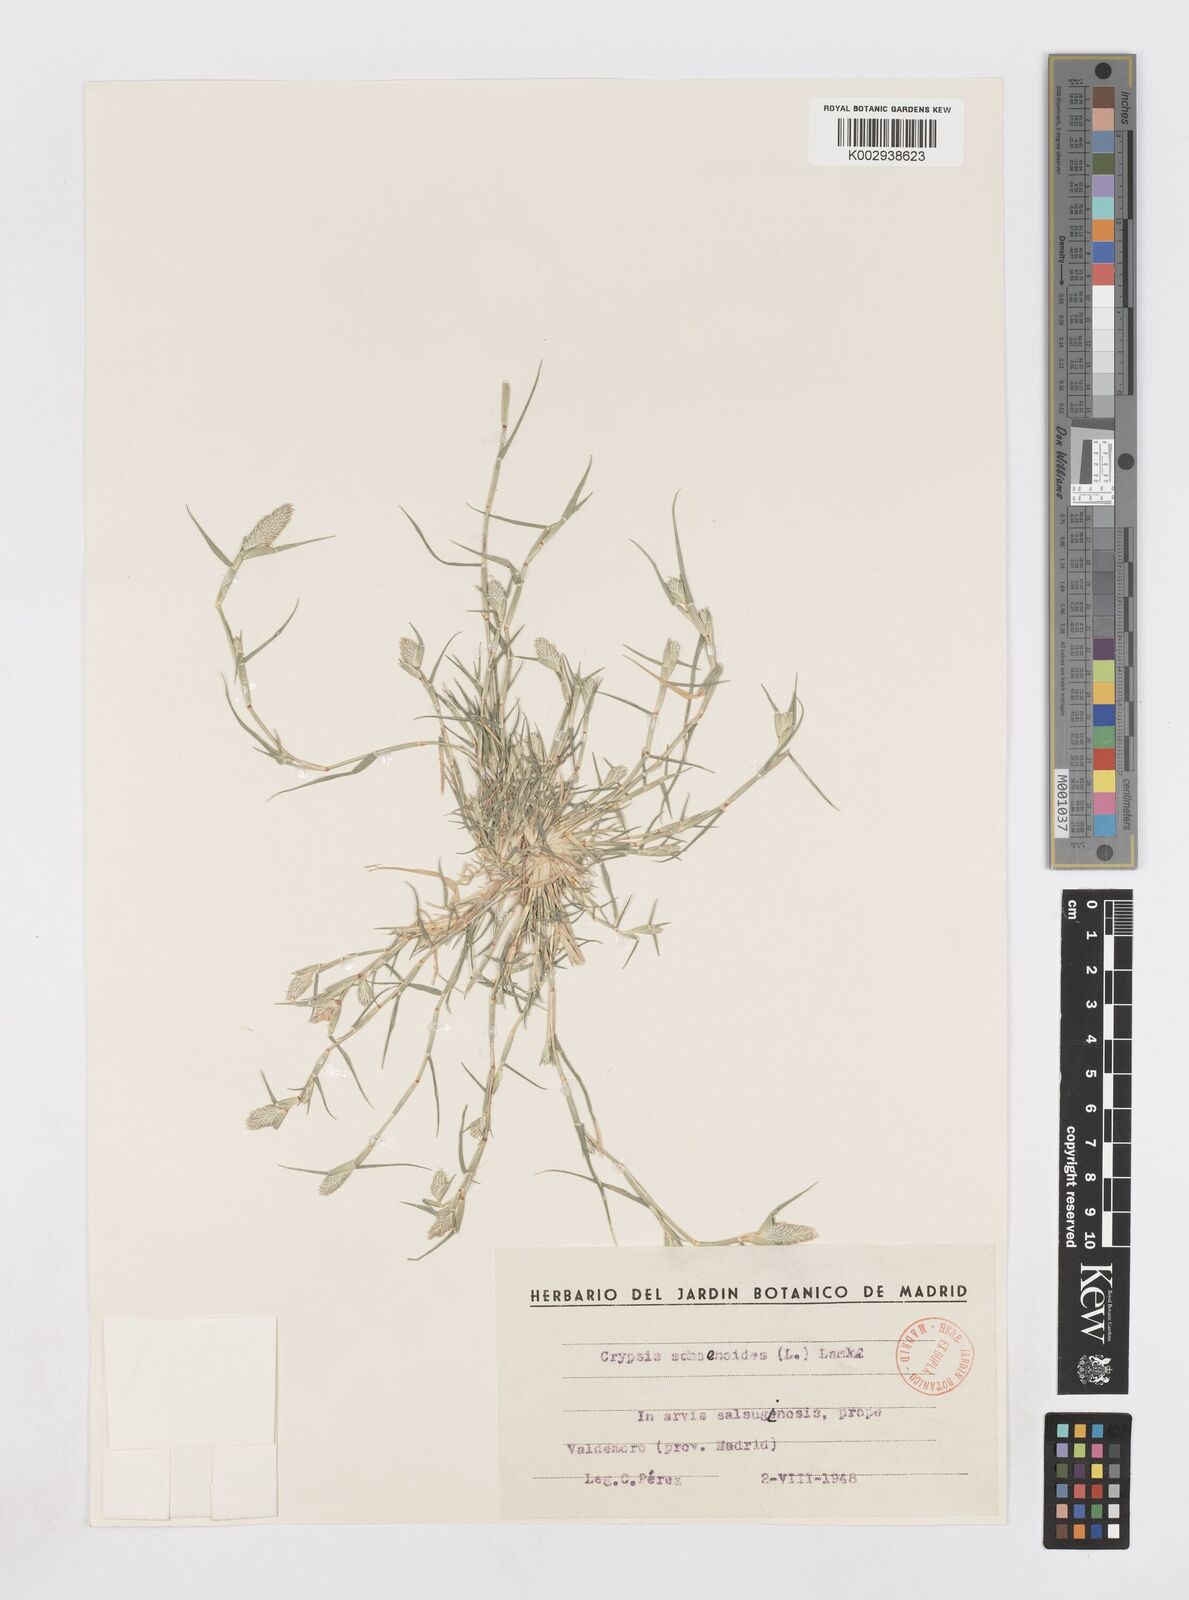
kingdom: Plantae
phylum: Tracheophyta
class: Liliopsida
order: Poales
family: Poaceae
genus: Sporobolus
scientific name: Sporobolus schoenoides
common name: Rush-like timothy
